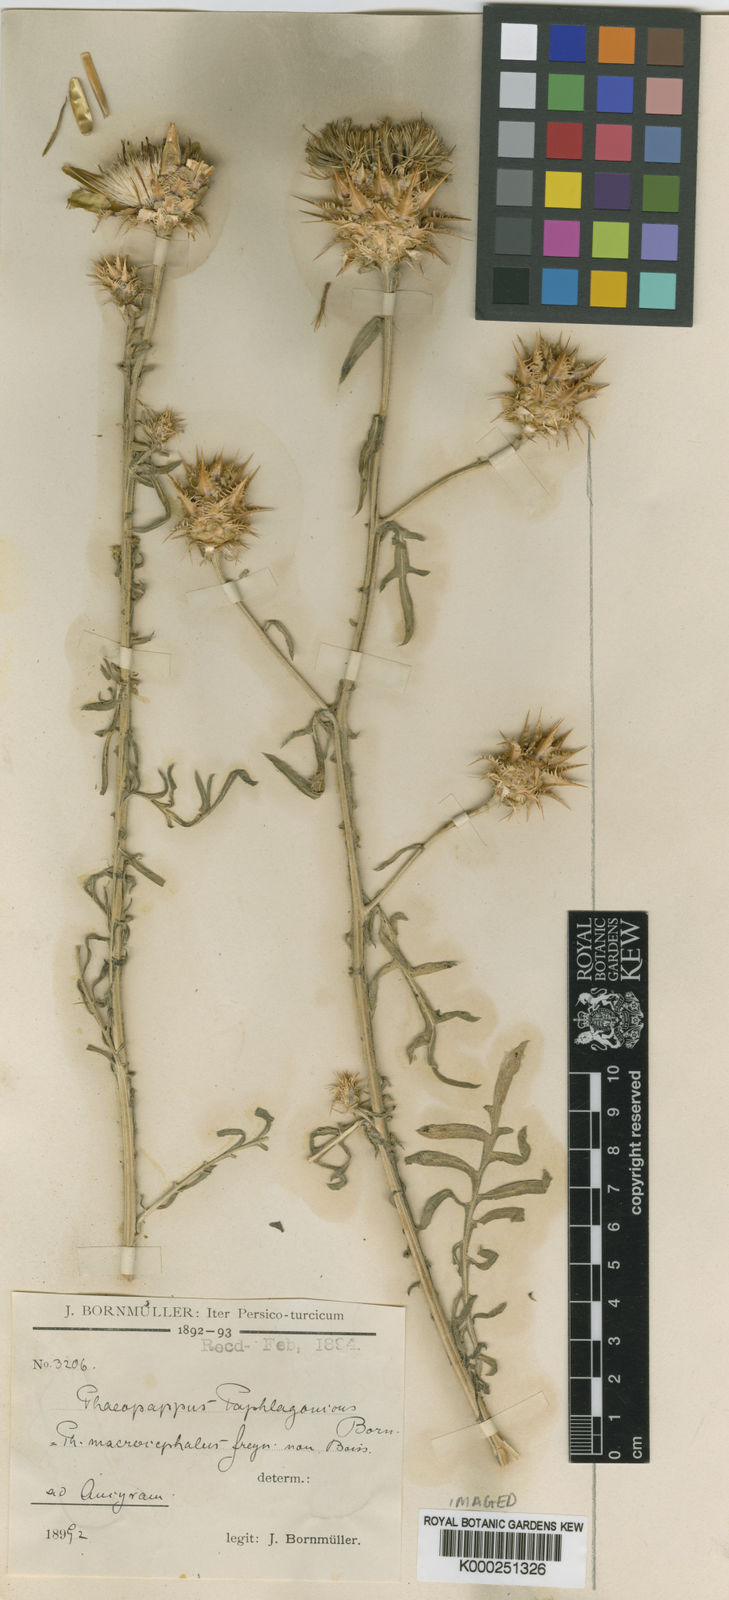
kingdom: Plantae
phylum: Tracheophyta
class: Magnoliopsida
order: Asterales
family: Asteraceae
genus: Centaurea
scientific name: Centaurea
